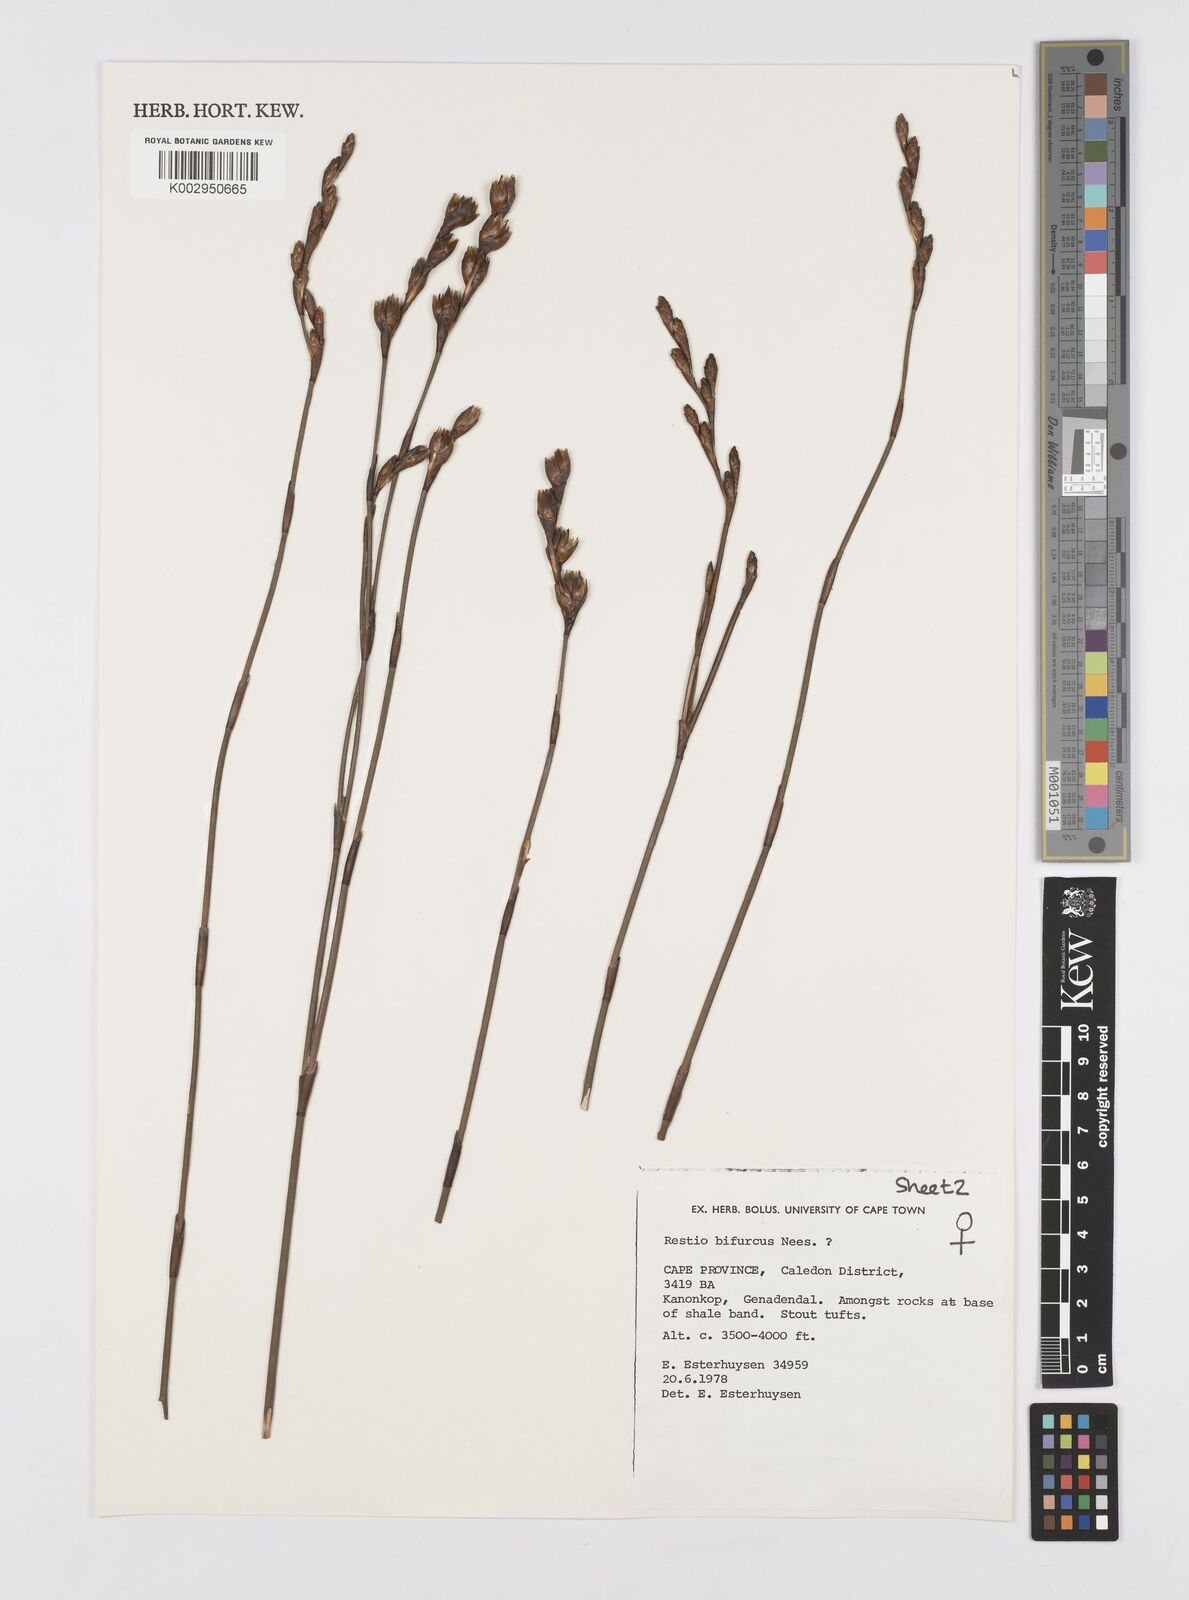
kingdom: Plantae
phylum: Tracheophyta
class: Liliopsida
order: Poales
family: Restionaceae
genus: Restio
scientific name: Restio bifurcus
